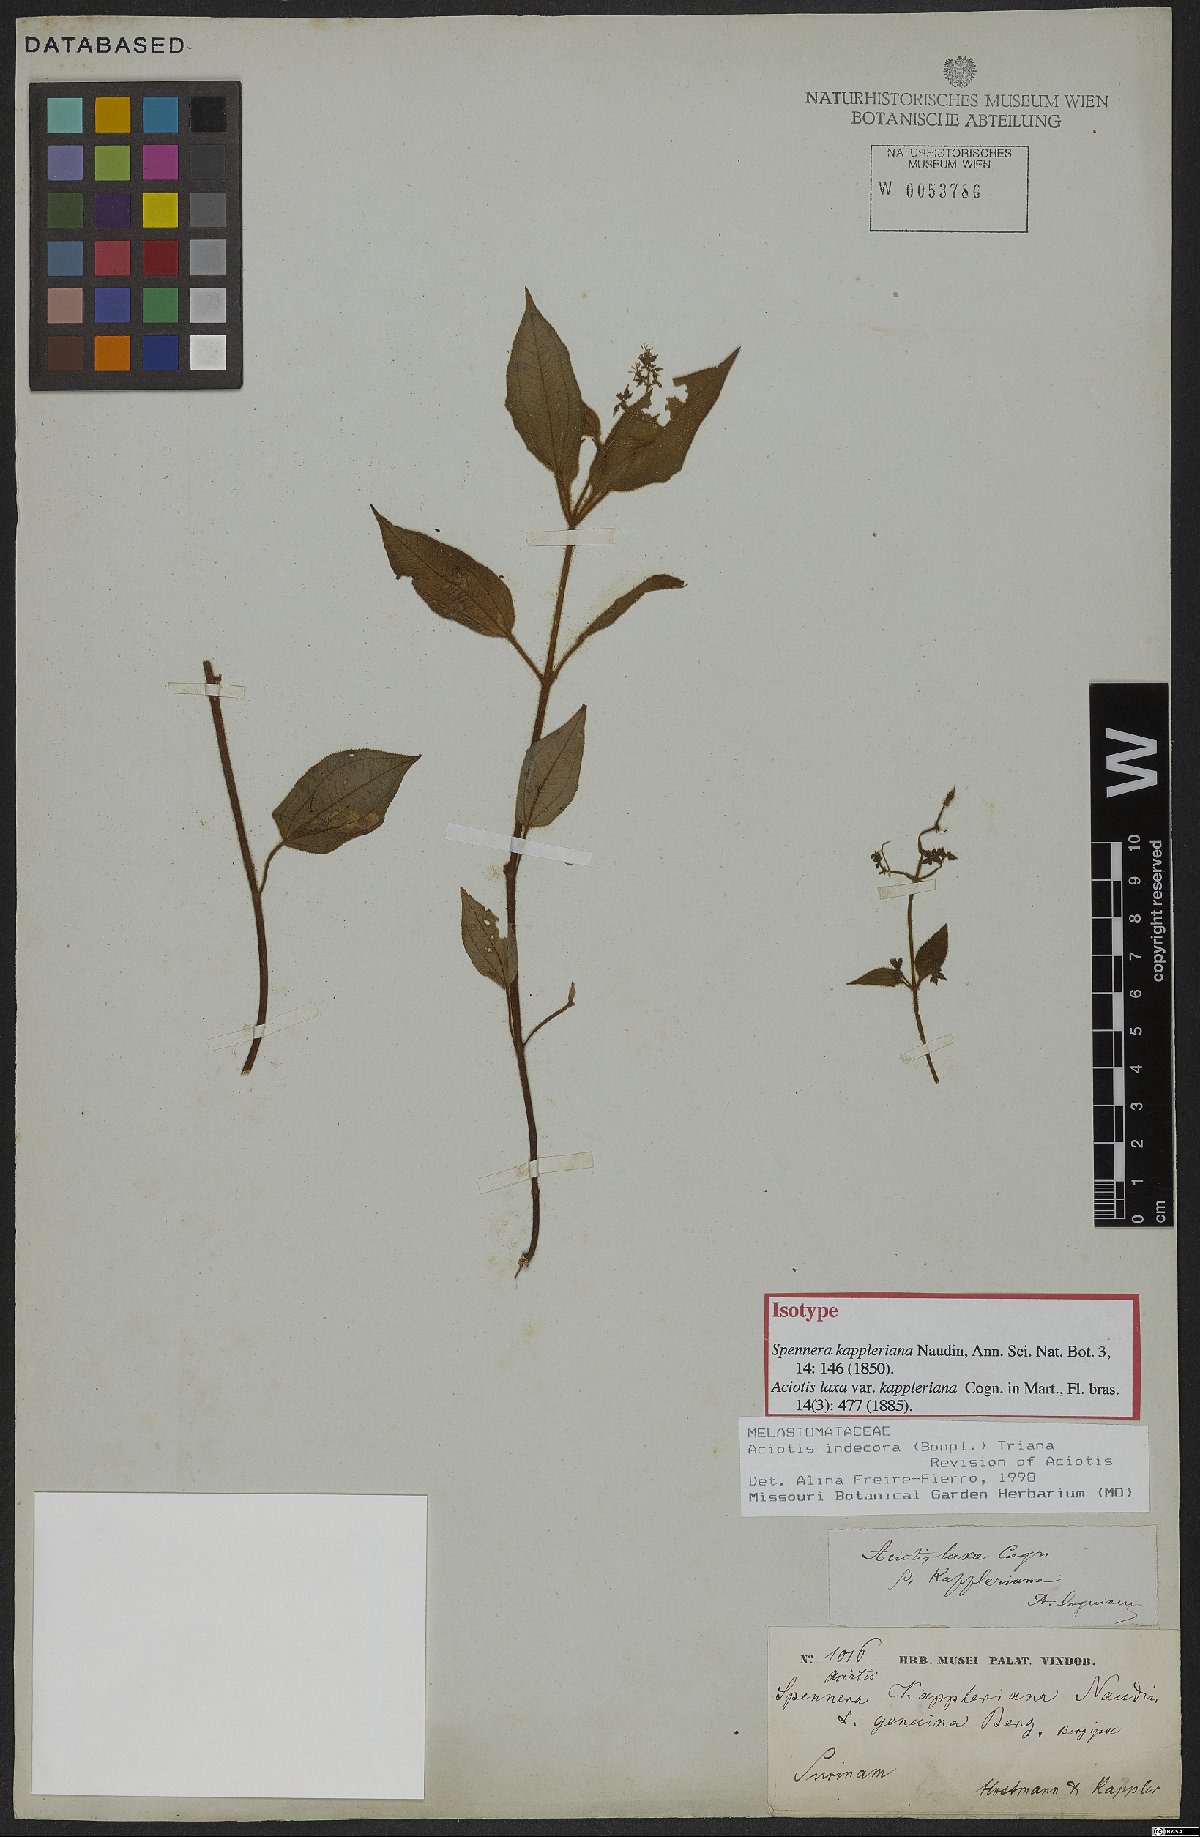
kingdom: Plantae
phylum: Tracheophyta
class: Magnoliopsida
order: Myrtales
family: Melastomataceae
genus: Aciotis
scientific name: Aciotis indecora
